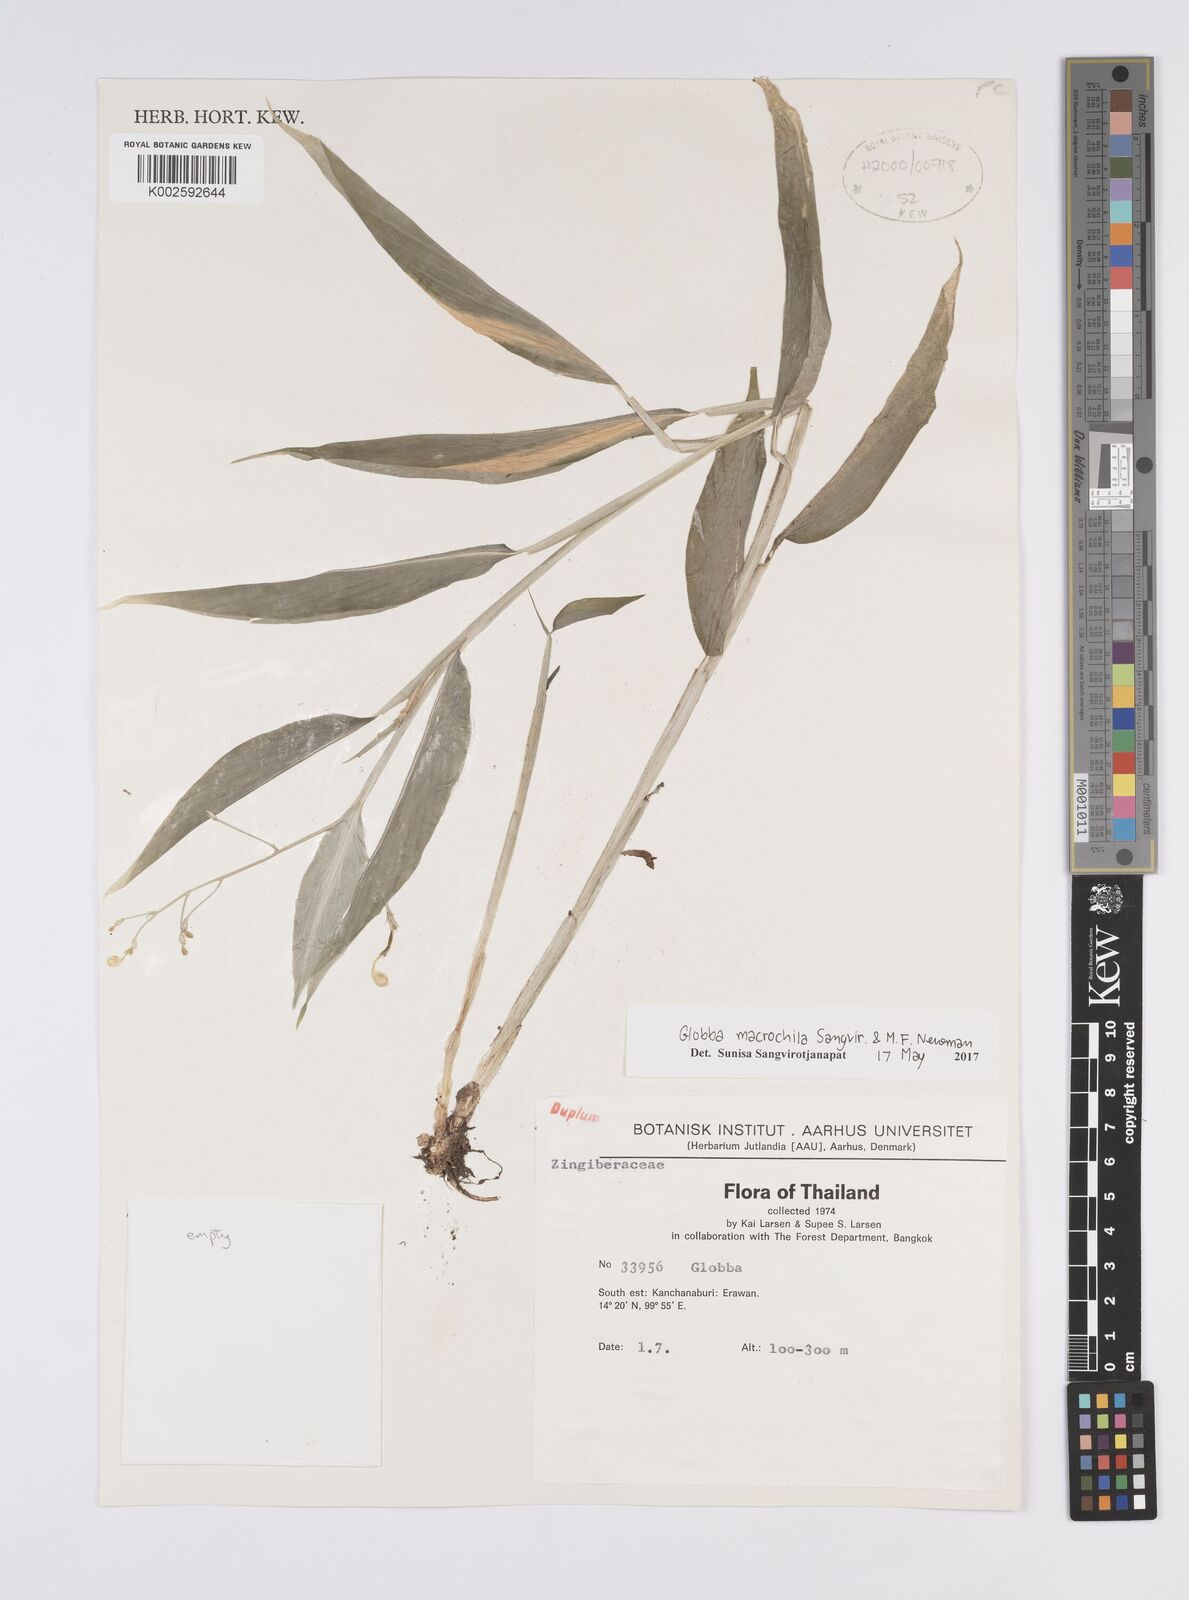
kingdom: Plantae
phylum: Tracheophyta
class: Liliopsida
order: Zingiberales
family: Zingiberaceae
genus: Globba
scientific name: Globba macrochila
